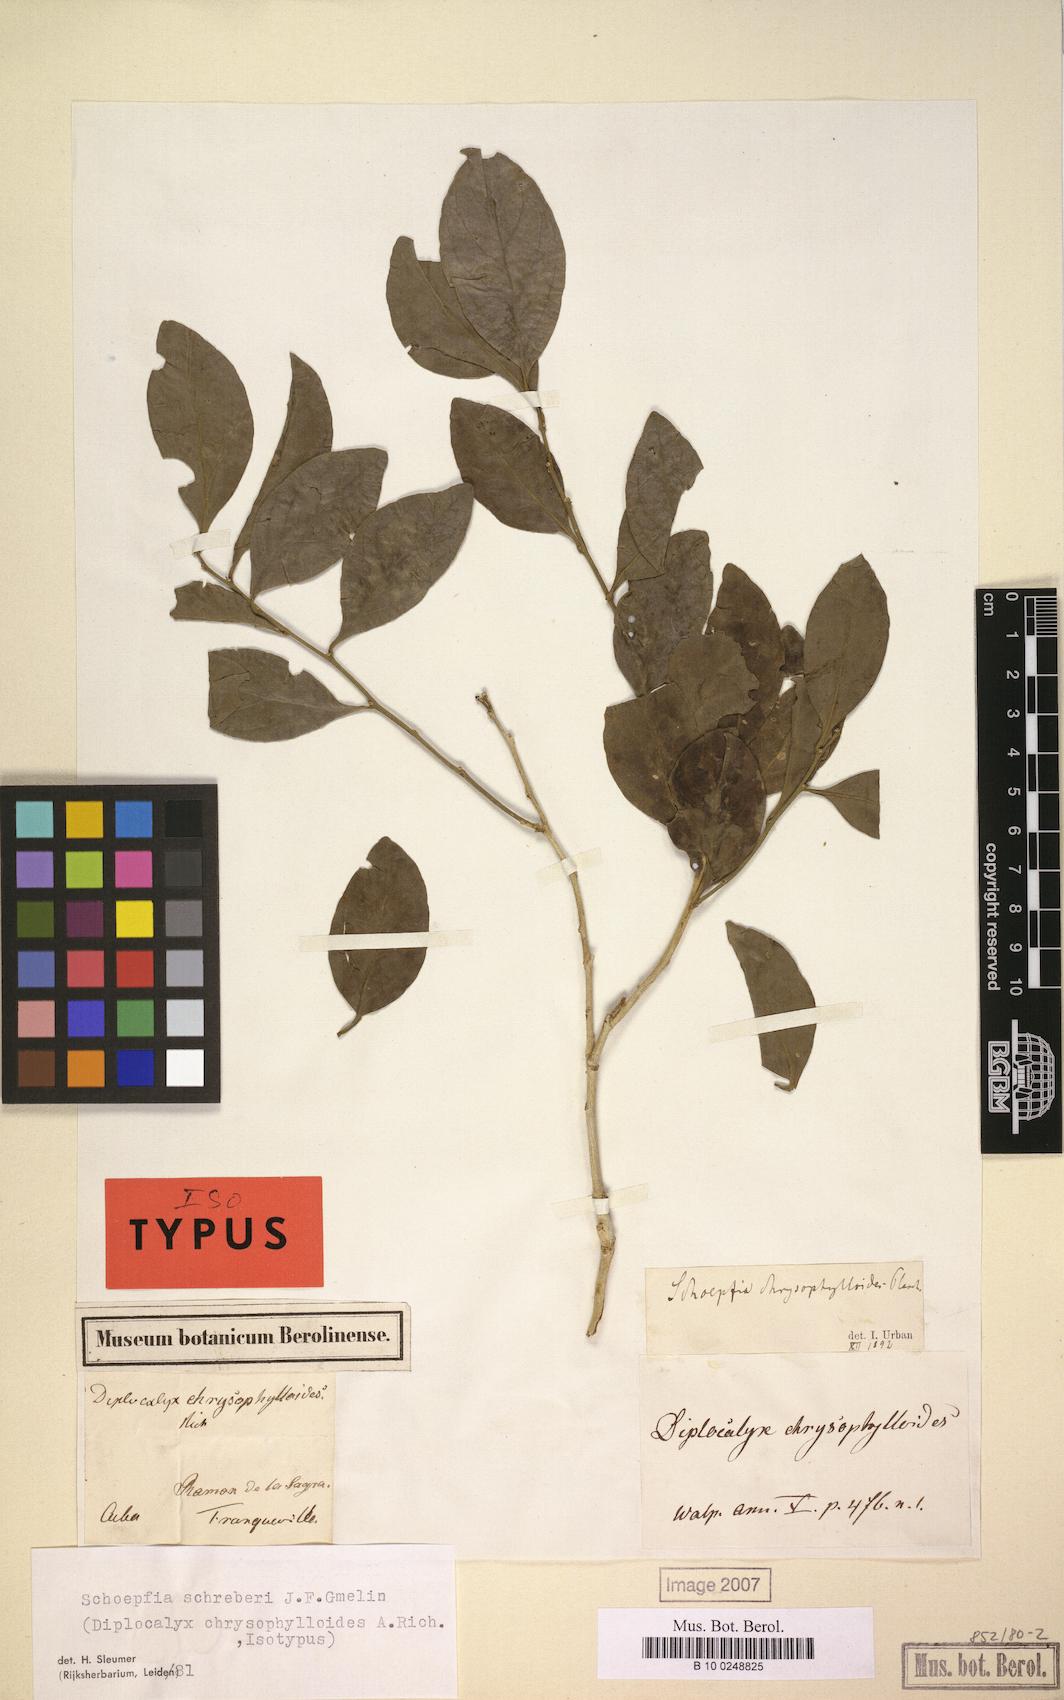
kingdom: Plantae
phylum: Tracheophyta
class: Magnoliopsida
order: Santalales
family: Schoepfiaceae
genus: Schoepfia
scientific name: Schoepfia schreberi
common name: Gulf graytwig
